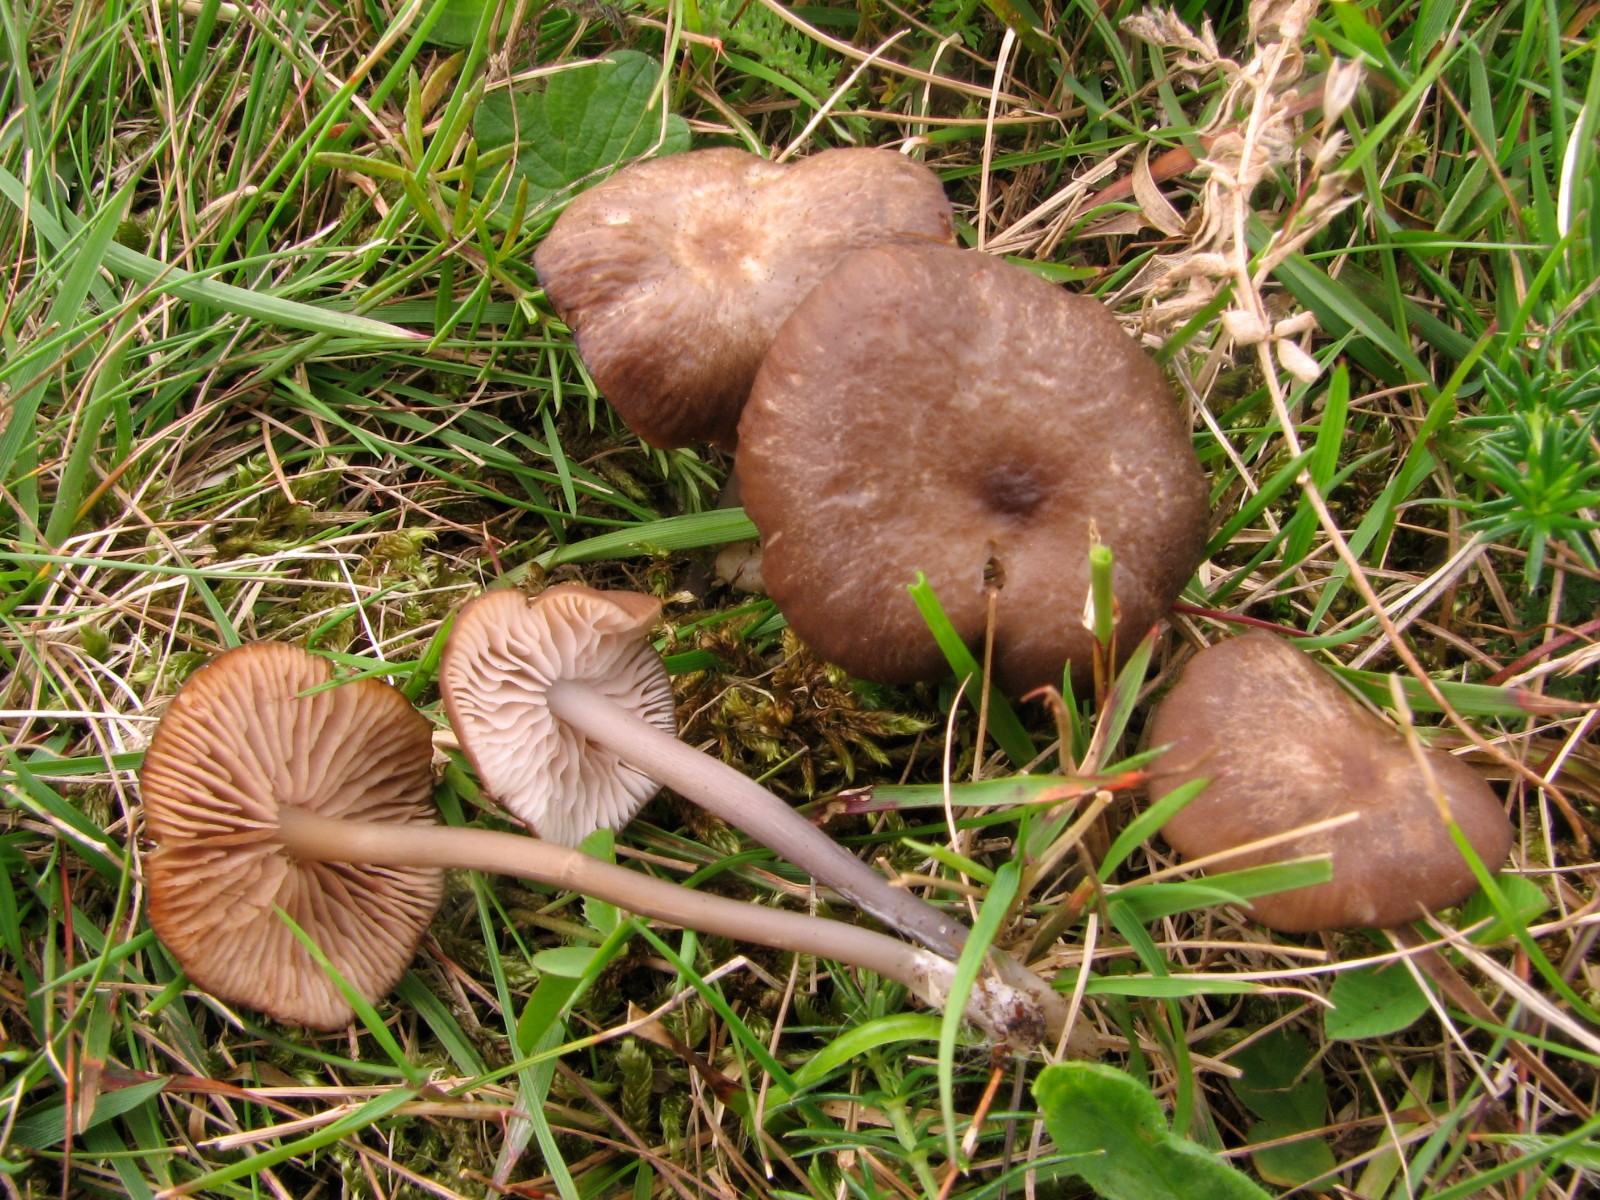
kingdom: Fungi
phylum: Basidiomycota
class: Agaricomycetes
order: Agaricales
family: Entolomataceae
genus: Entoloma
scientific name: Entoloma pseudoturci
